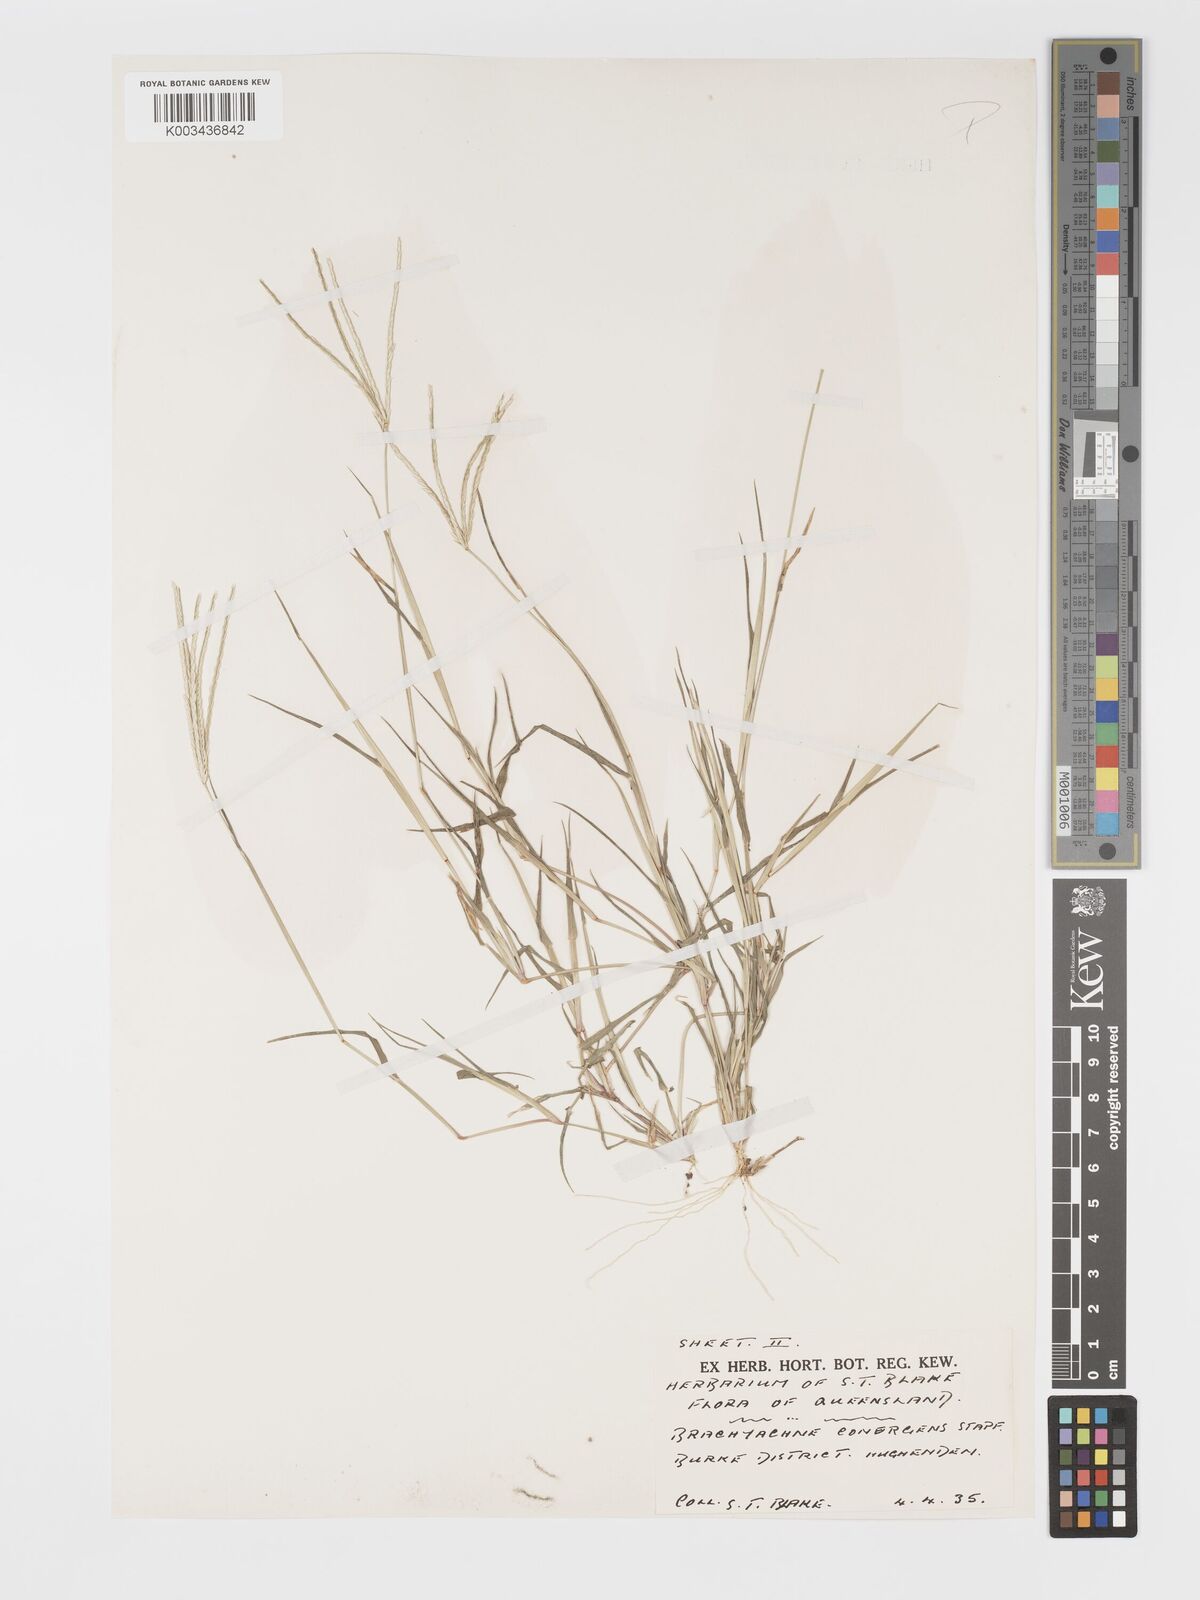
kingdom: Plantae
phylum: Tracheophyta
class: Liliopsida
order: Poales
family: Poaceae
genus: Cynodon
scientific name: Cynodon convergens
